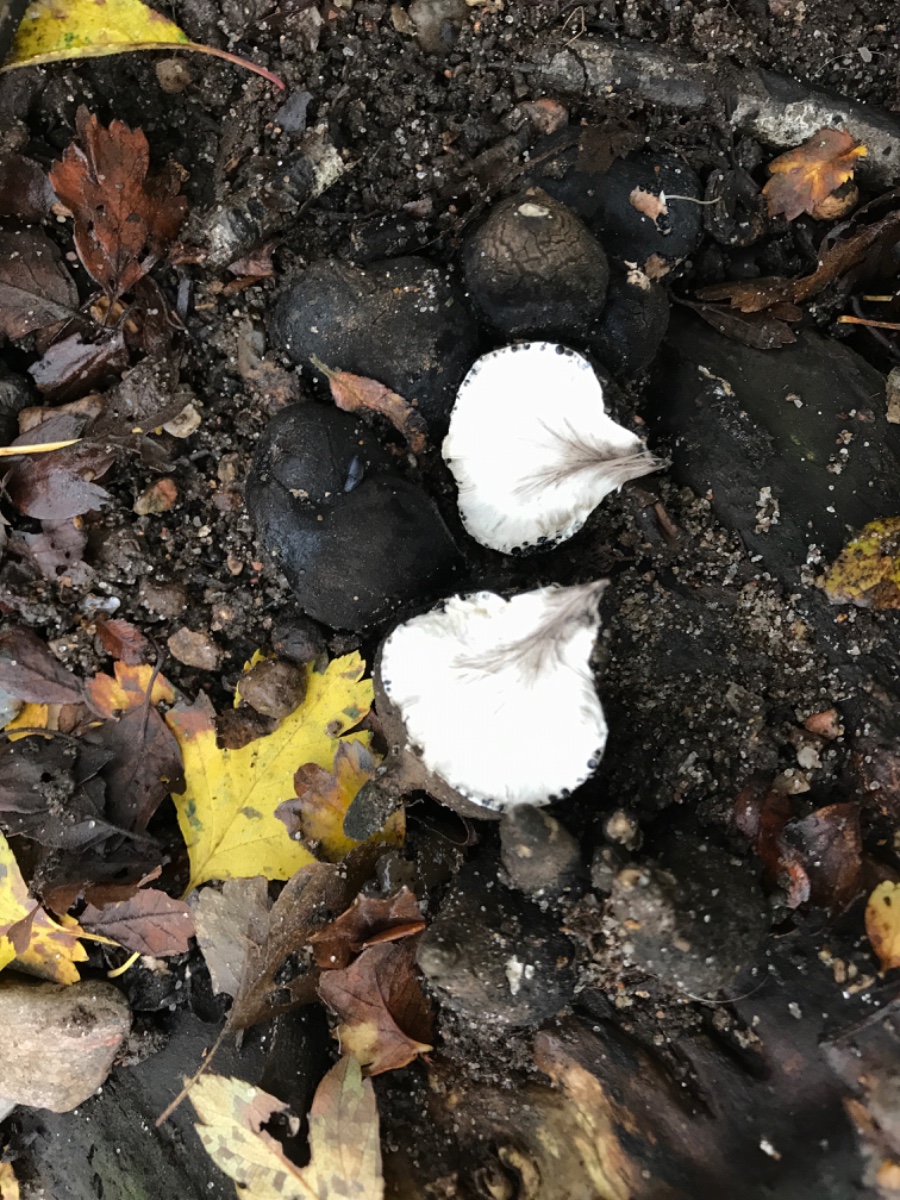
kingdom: Fungi
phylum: Ascomycota
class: Sordariomycetes
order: Xylariales
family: Xylariaceae
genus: Xylaria
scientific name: Xylaria polymorpha
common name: kølle-stødsvamp
